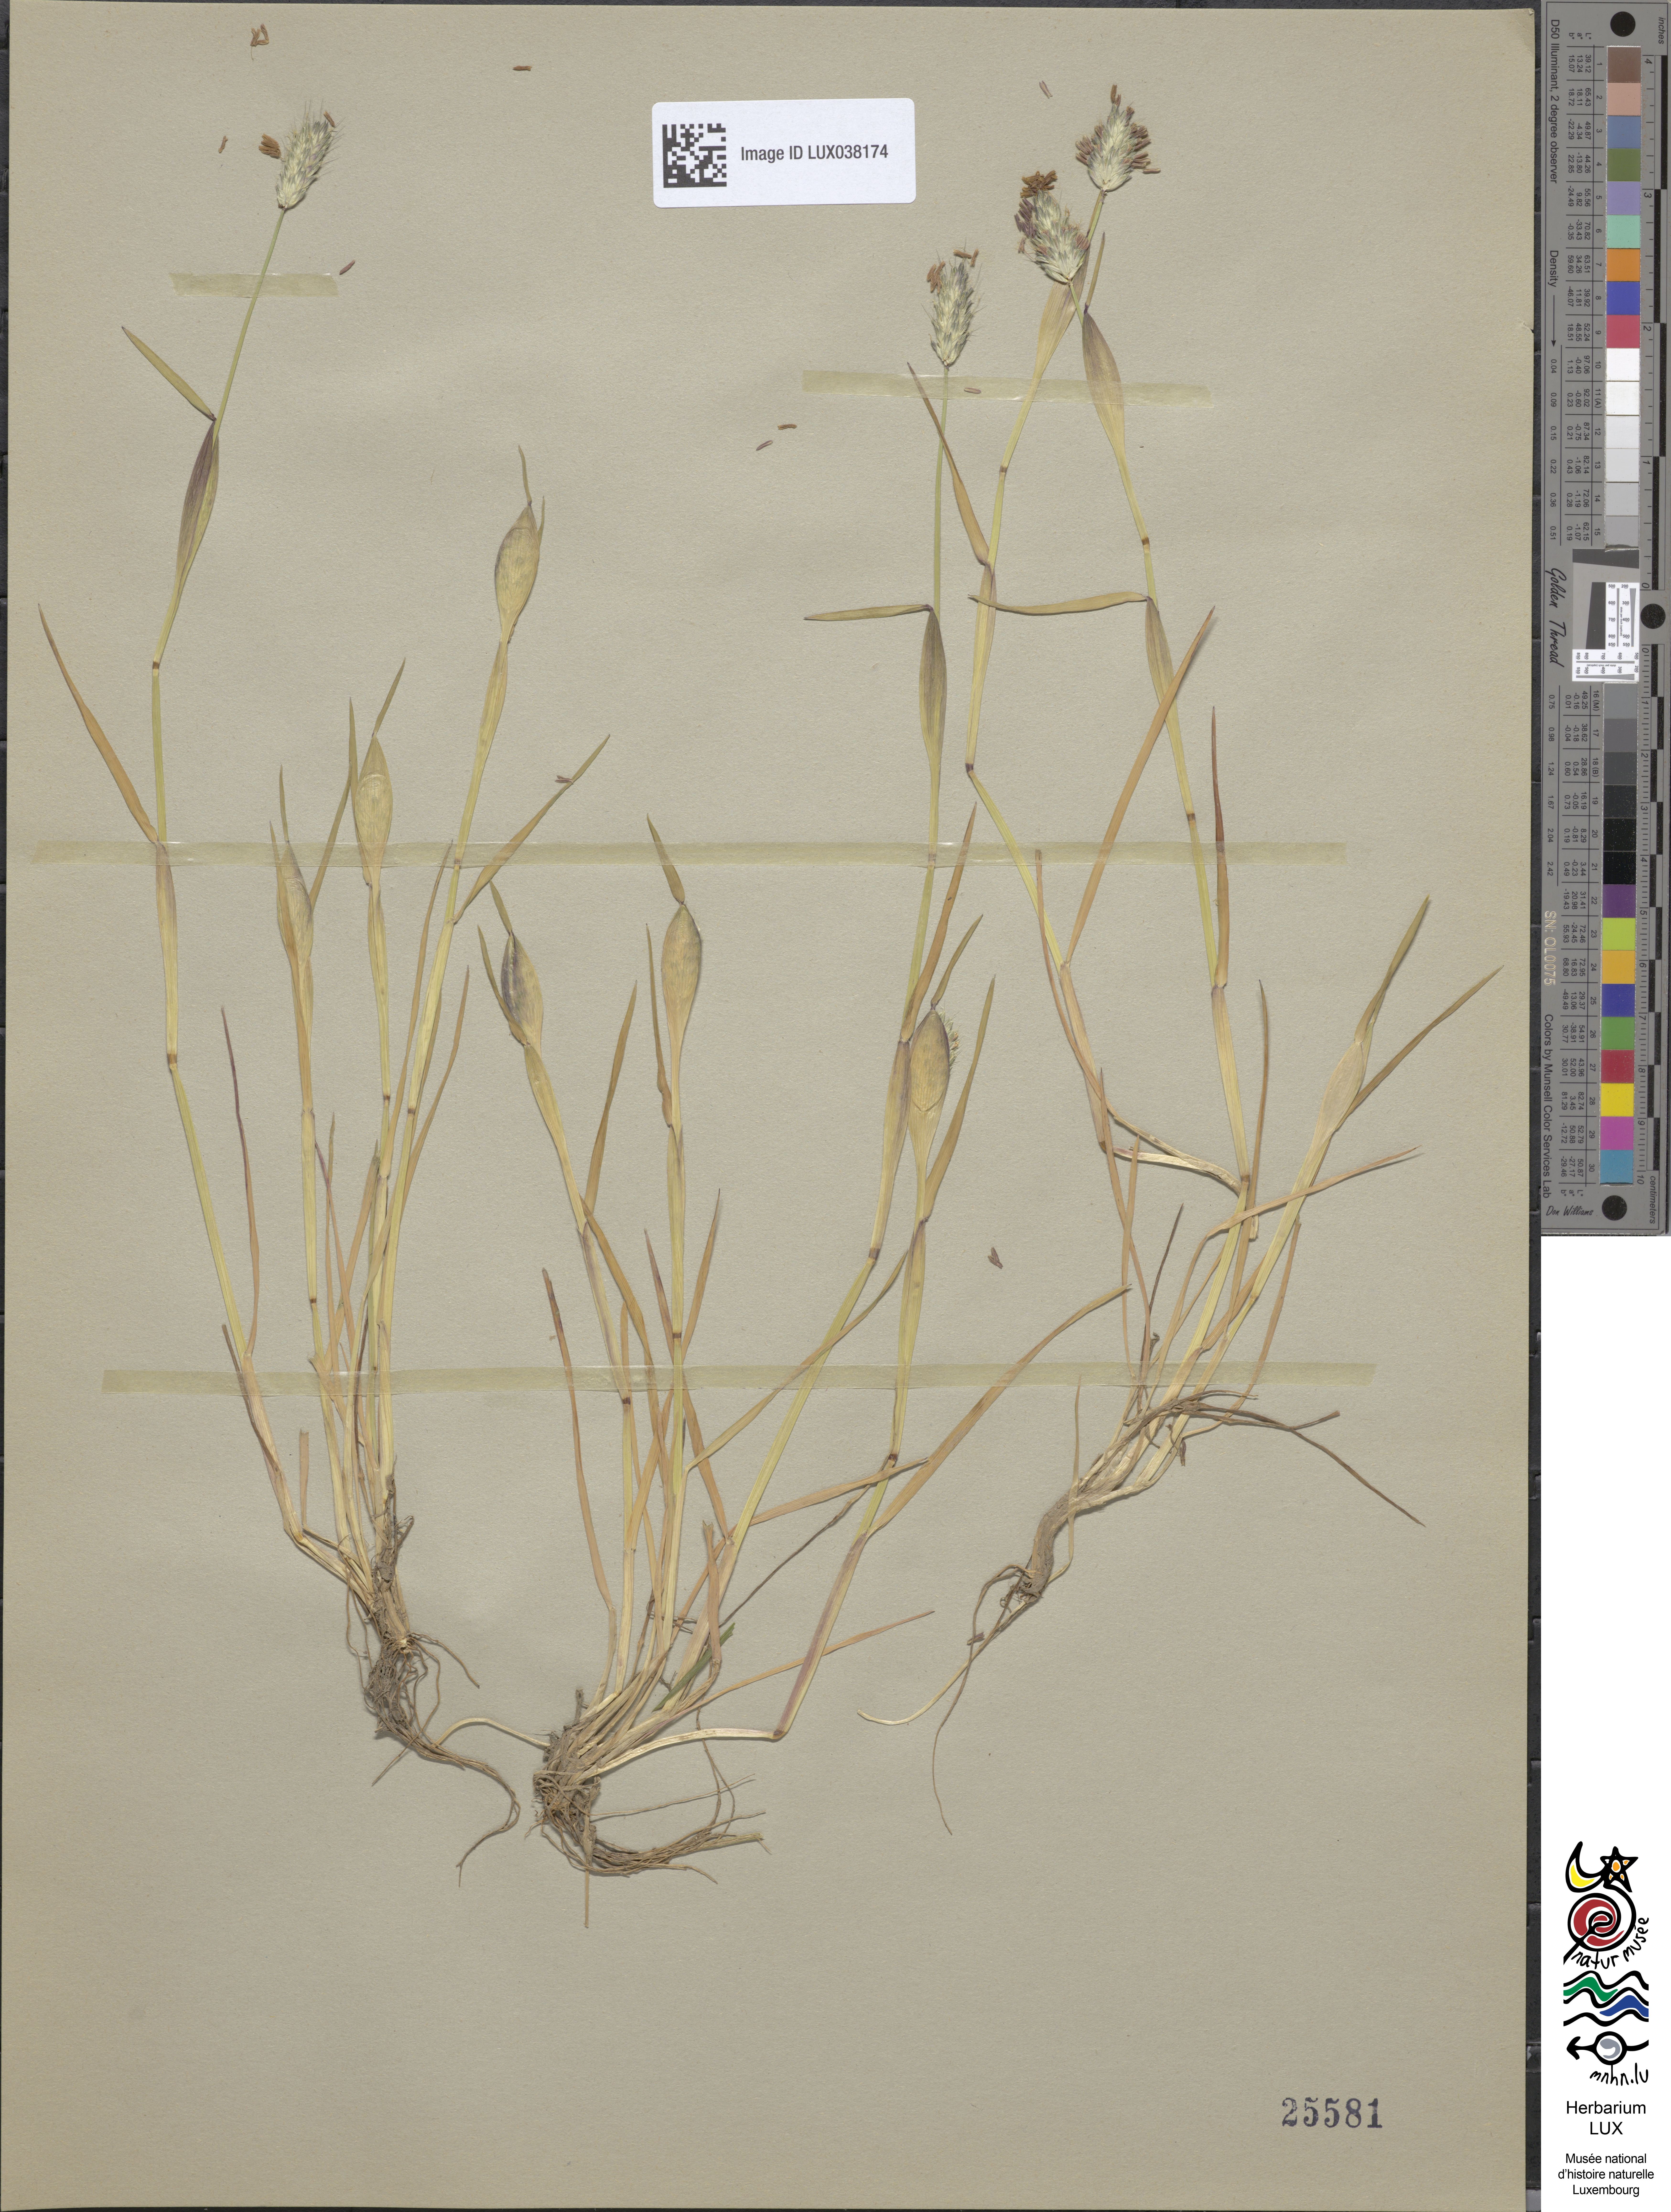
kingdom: Plantae
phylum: Tracheophyta
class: Magnoliopsida
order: Asterales
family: Asteraceae
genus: Bellis
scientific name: Bellis sylvestris
